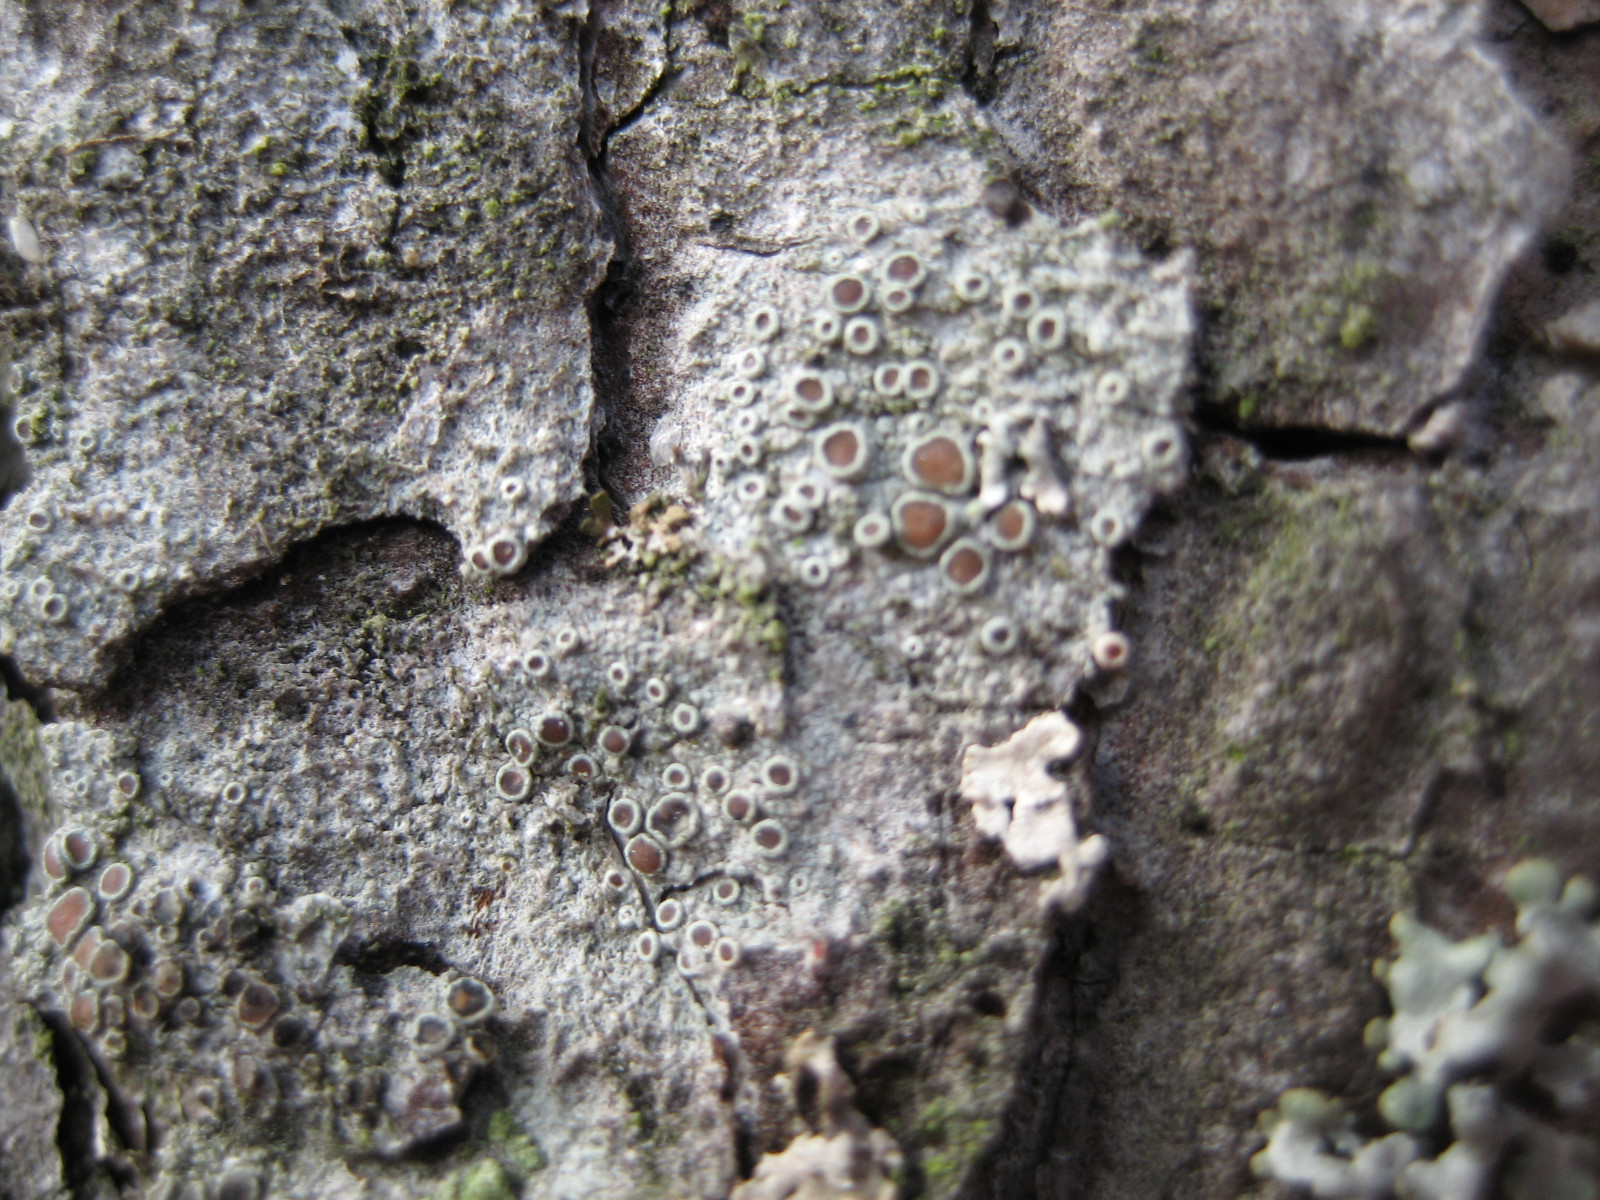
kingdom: Fungi
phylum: Ascomycota
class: Lecanoromycetes
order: Lecanorales
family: Lecanoraceae
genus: Lecanora
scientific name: Lecanora pulicaris
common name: almindelig kantskivelav
